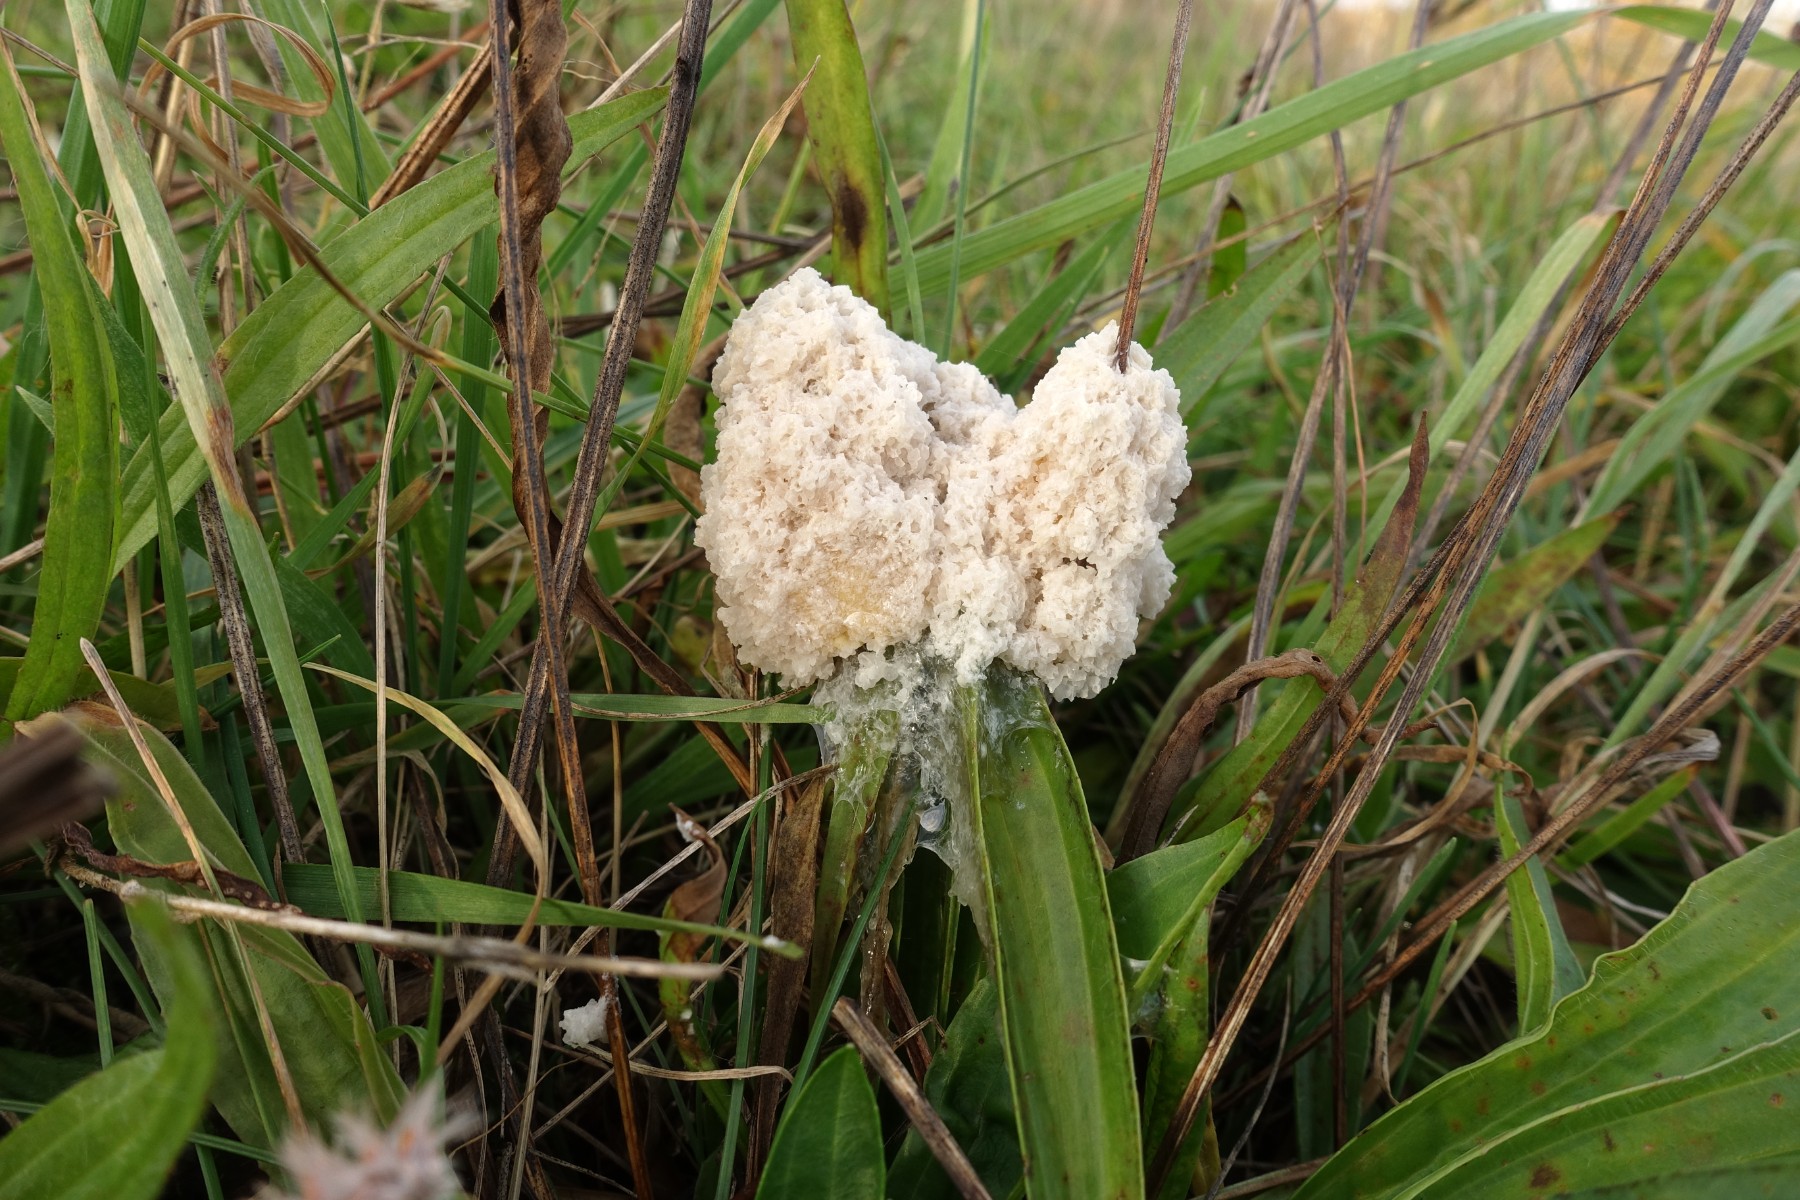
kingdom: Protozoa
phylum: Mycetozoa
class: Myxomycetes
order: Physarales
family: Physaraceae
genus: Didymium
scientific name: Didymium
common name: urteskum
